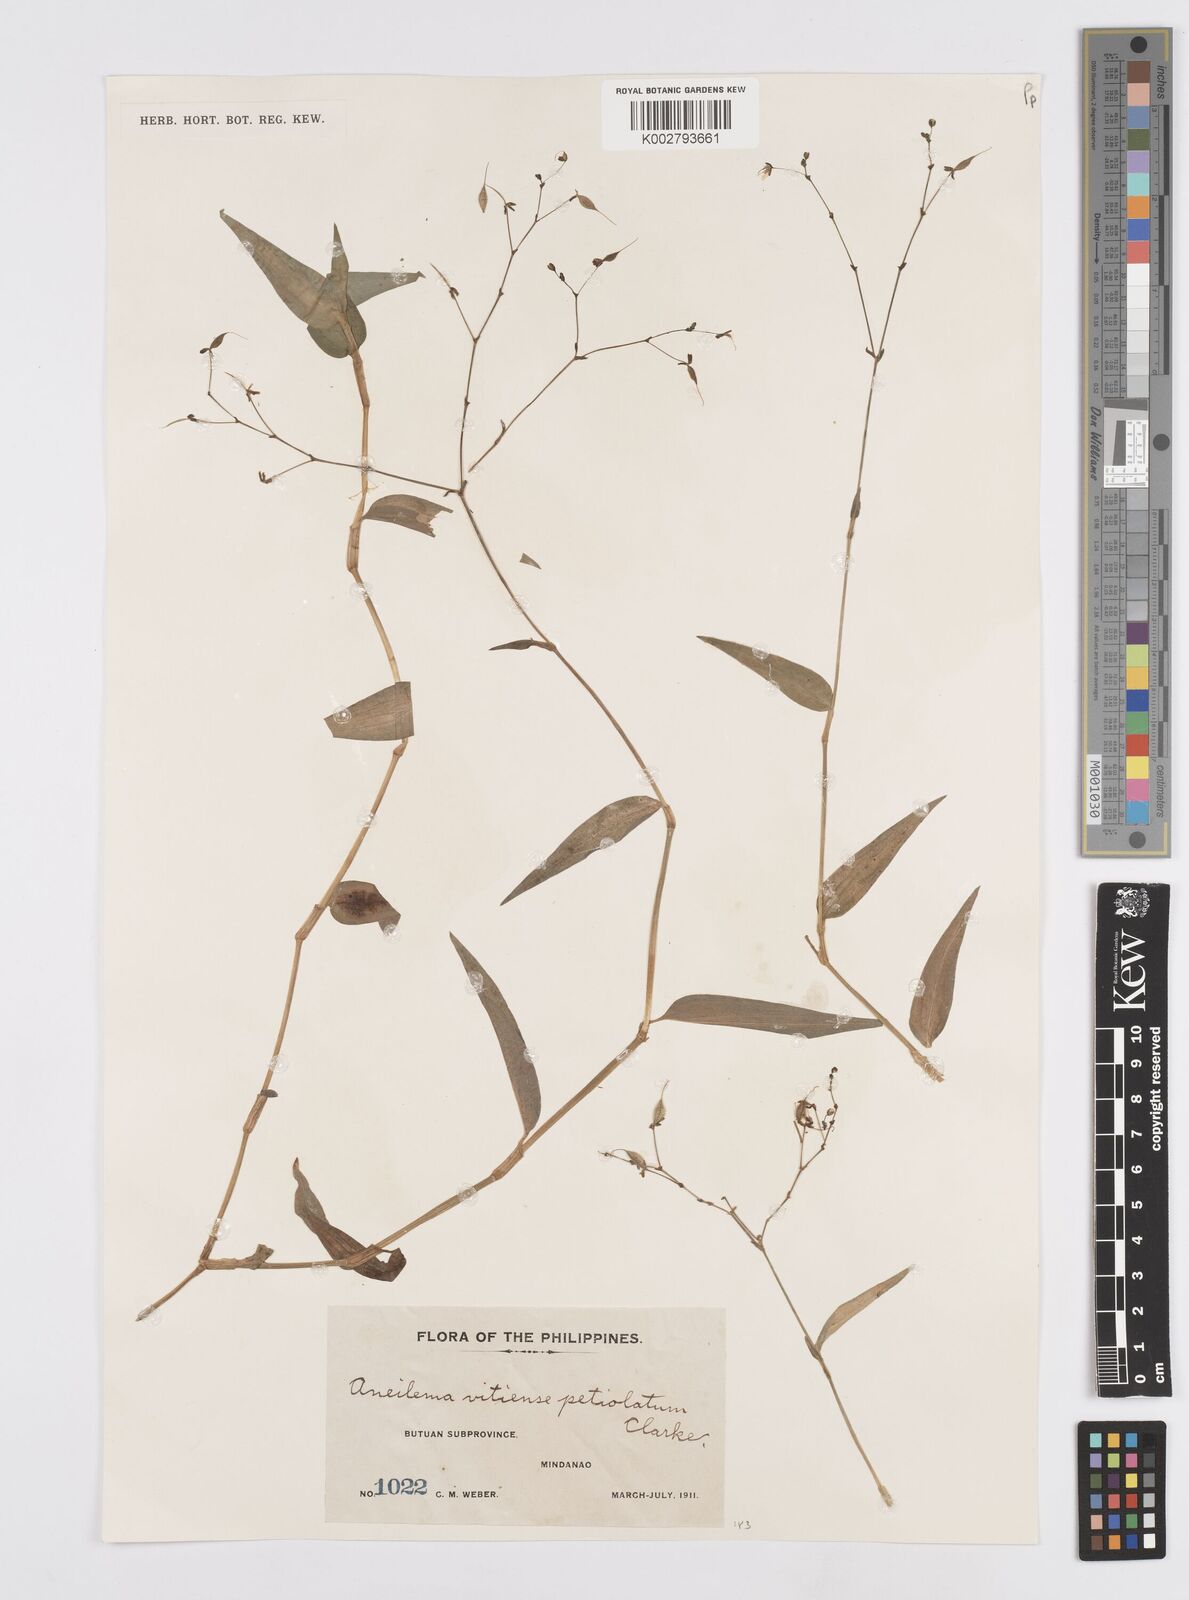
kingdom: Plantae
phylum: Tracheophyta
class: Liliopsida
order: Commelinales
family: Commelinaceae
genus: Murdannia
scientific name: Murdannia
